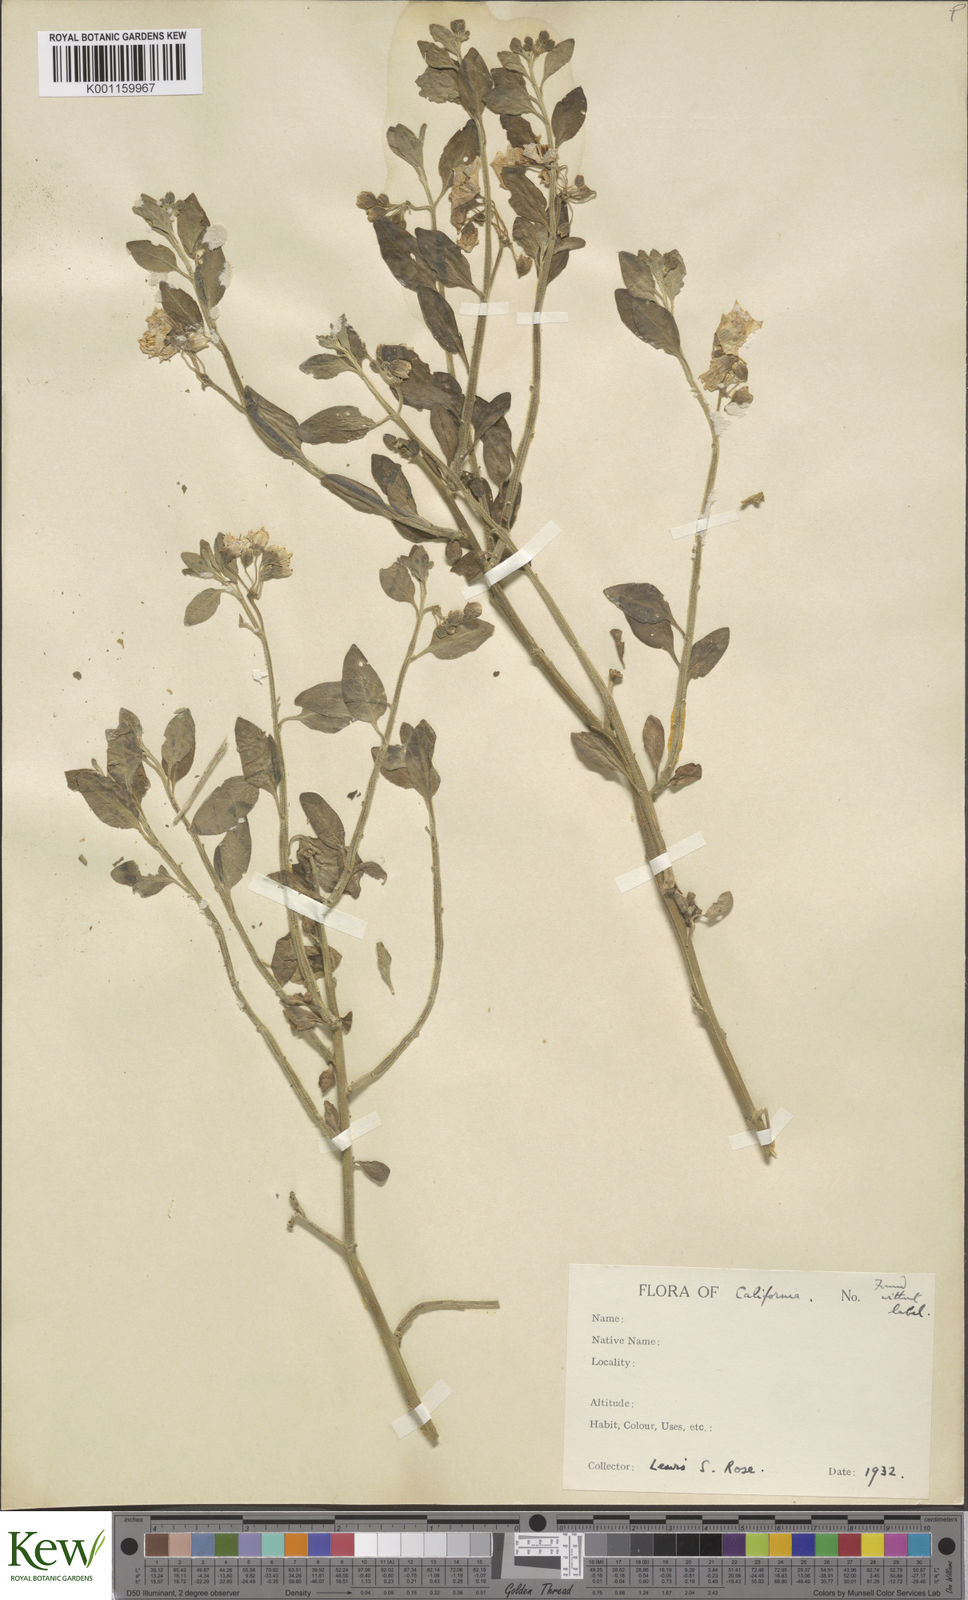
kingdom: Plantae
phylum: Tracheophyta
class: Magnoliopsida
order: Solanales
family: Solanaceae
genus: Solanum
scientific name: Solanum umbelliferum
